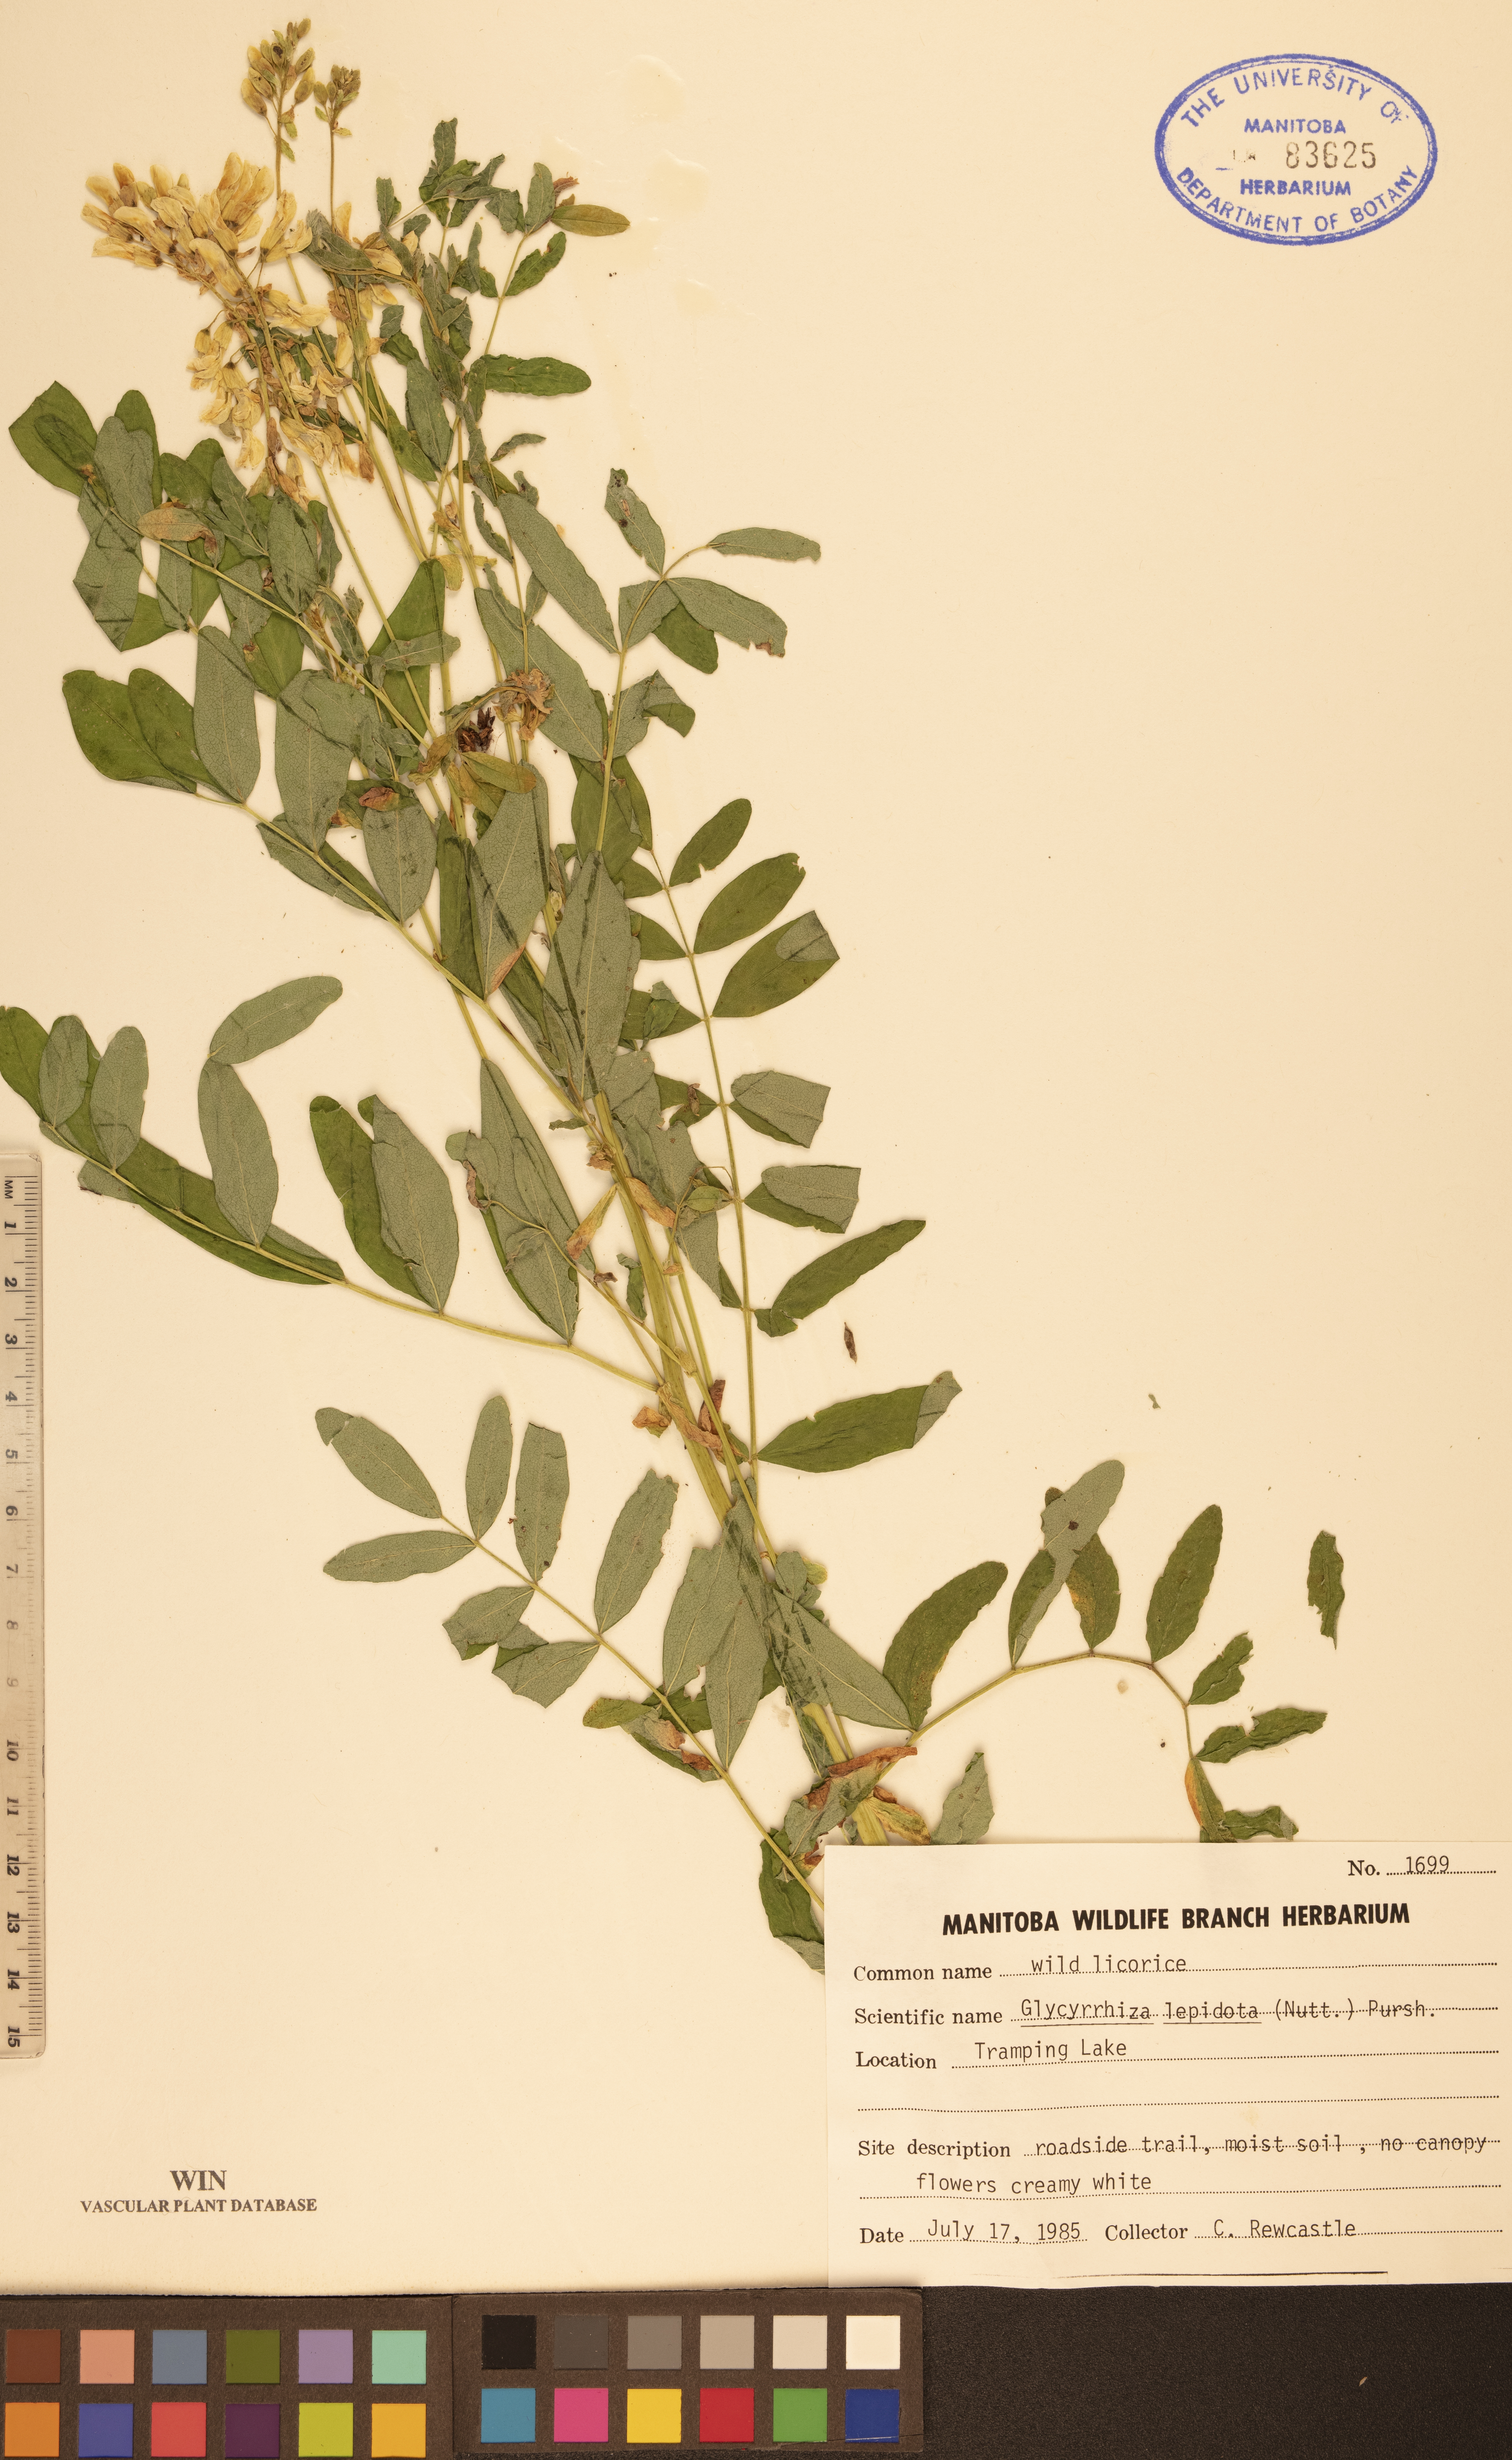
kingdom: Plantae
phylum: Tracheophyta
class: Magnoliopsida
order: Fabales
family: Fabaceae
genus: Glycyrrhiza
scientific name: Glycyrrhiza lepidota
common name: American liquorice
